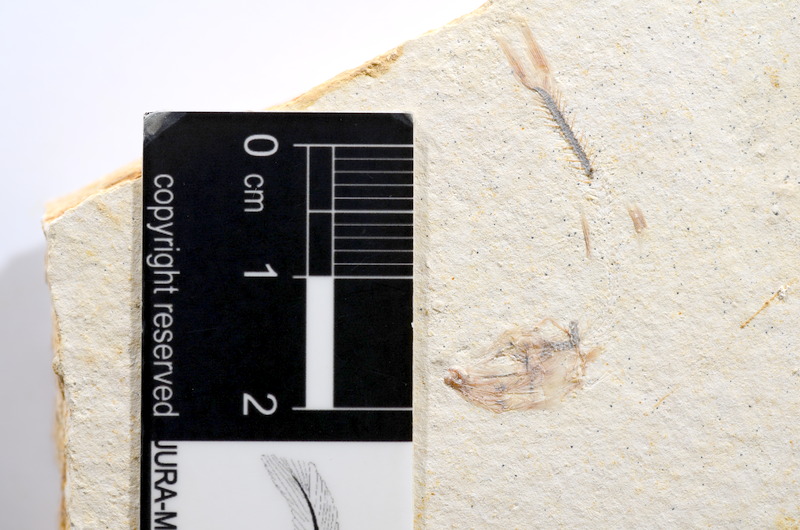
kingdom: Animalia
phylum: Chordata
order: Salmoniformes
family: Orthogonikleithridae
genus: Orthogonikleithrus
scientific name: Orthogonikleithrus hoelli
